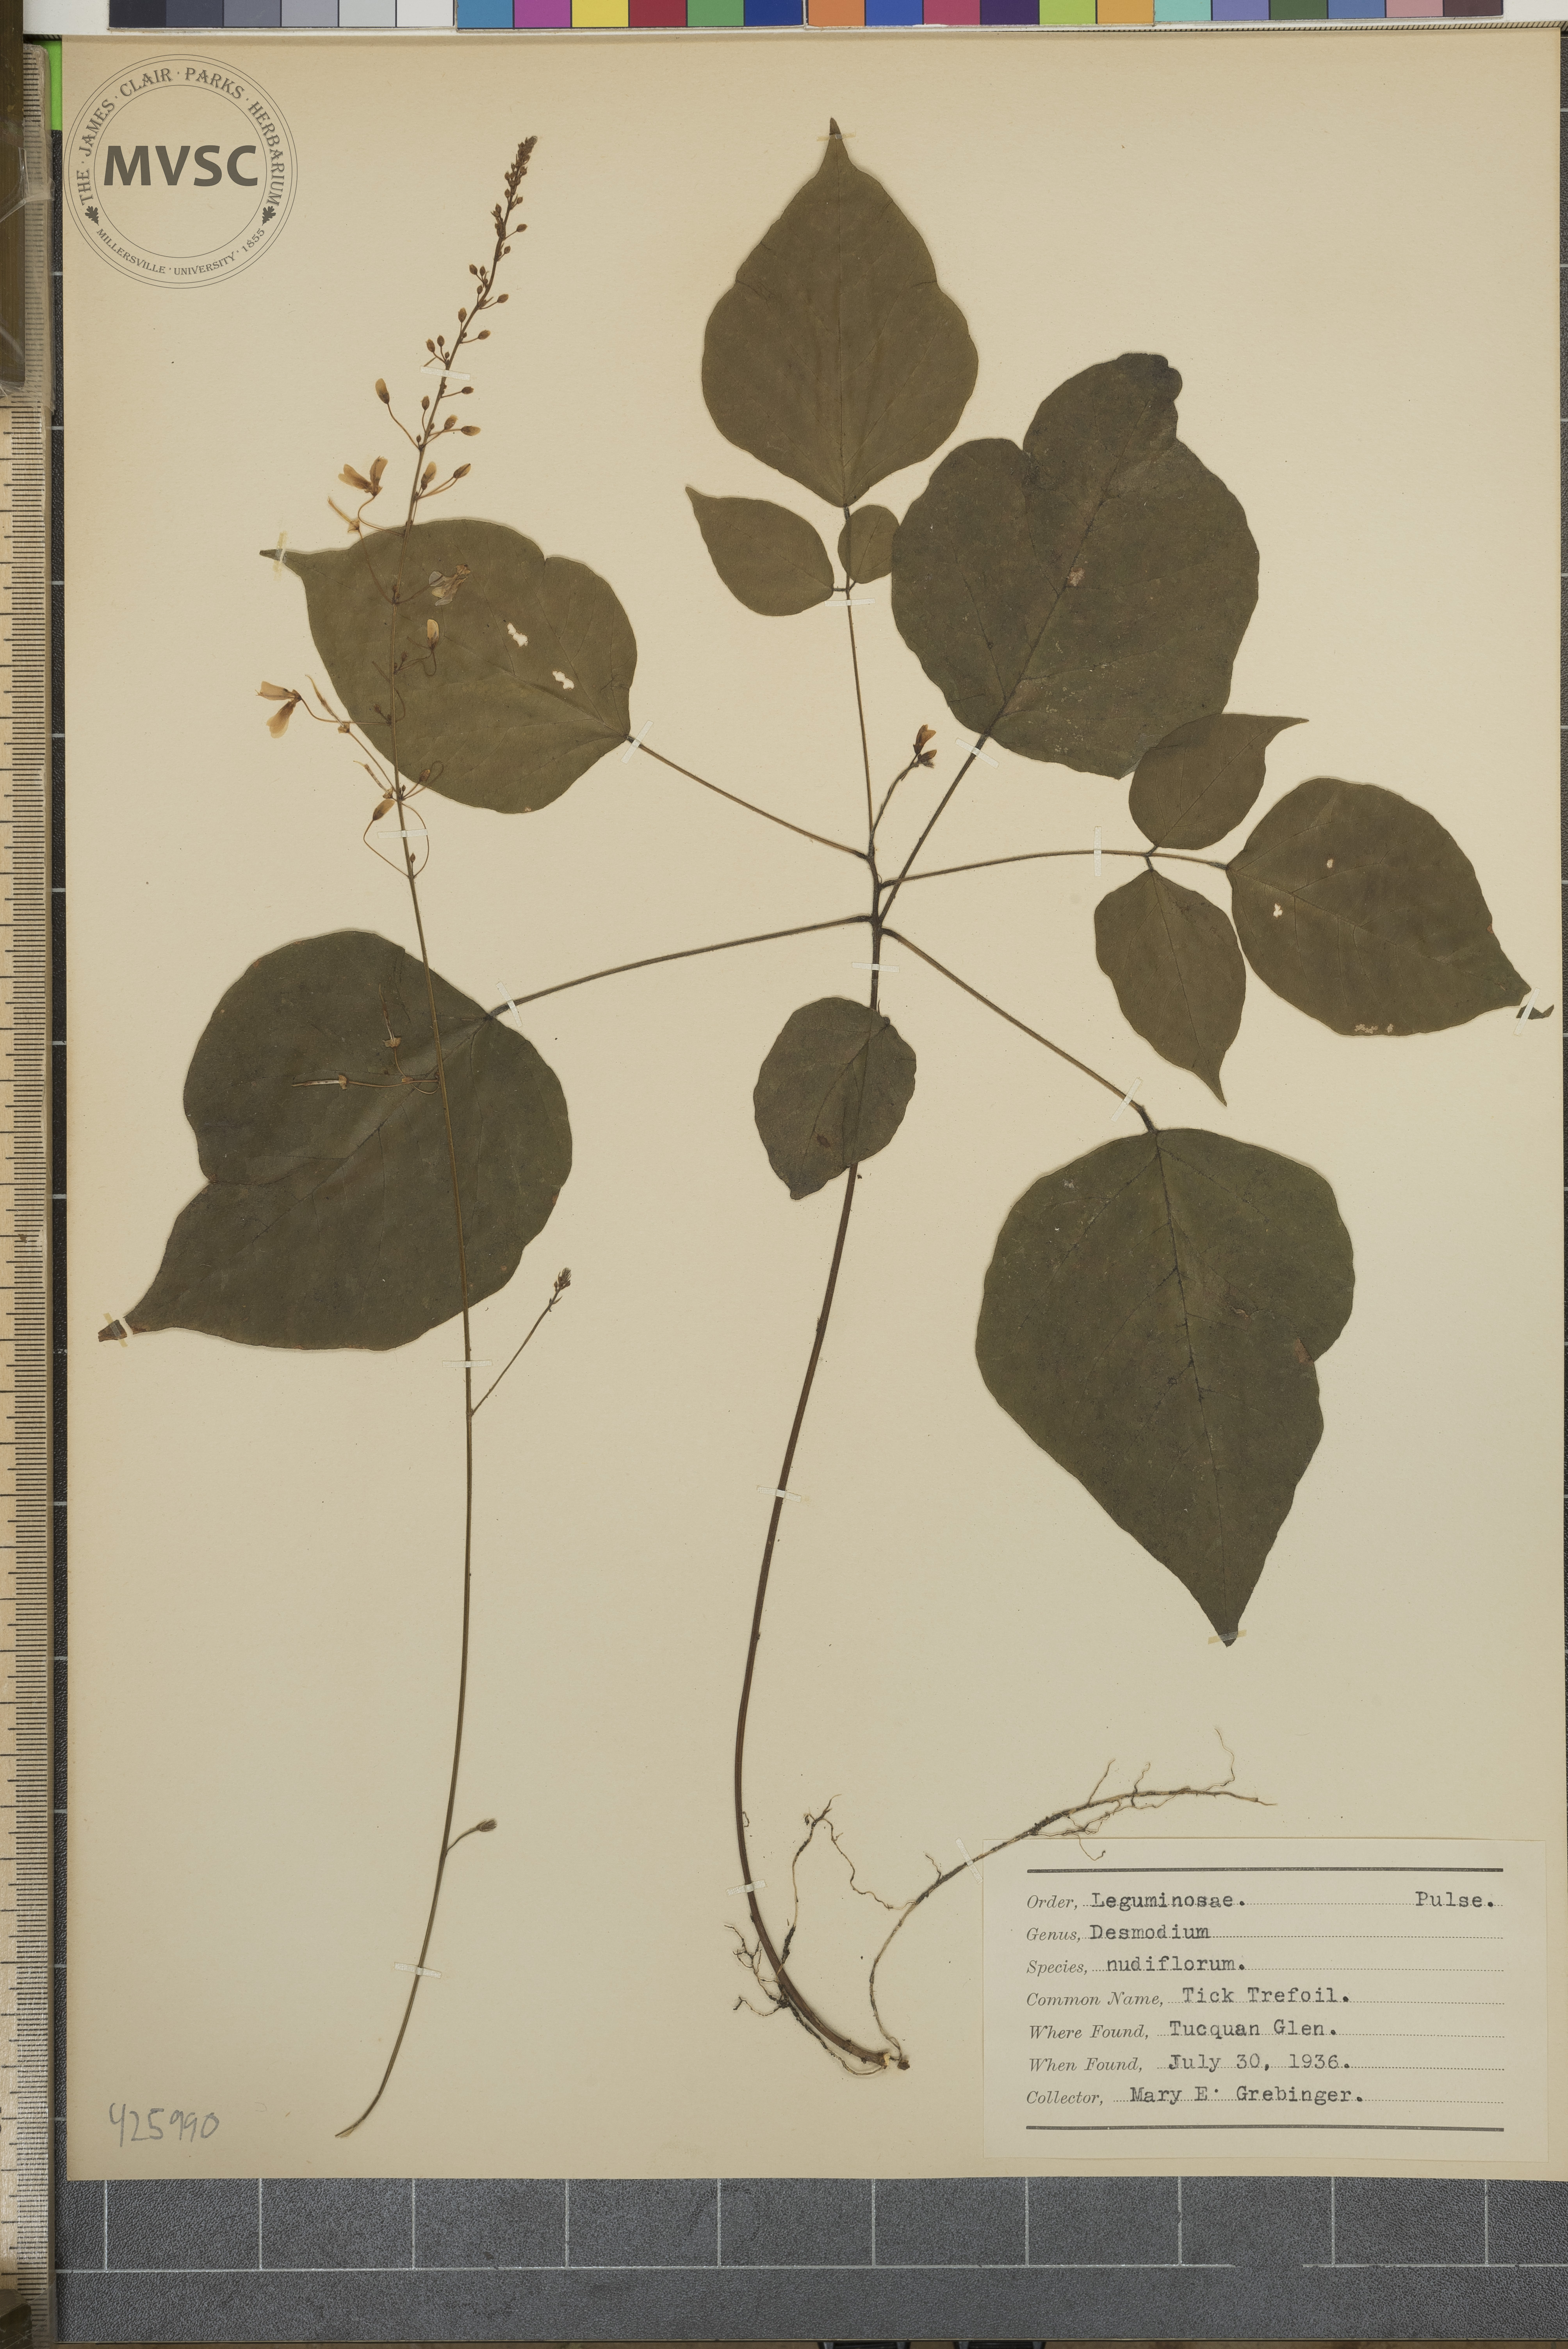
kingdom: Plantae
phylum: Tracheophyta
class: Magnoliopsida
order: Fabales
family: Fabaceae
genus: Hylodesmum
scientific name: Hylodesmum nudiflorum
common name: Tick trefoil
